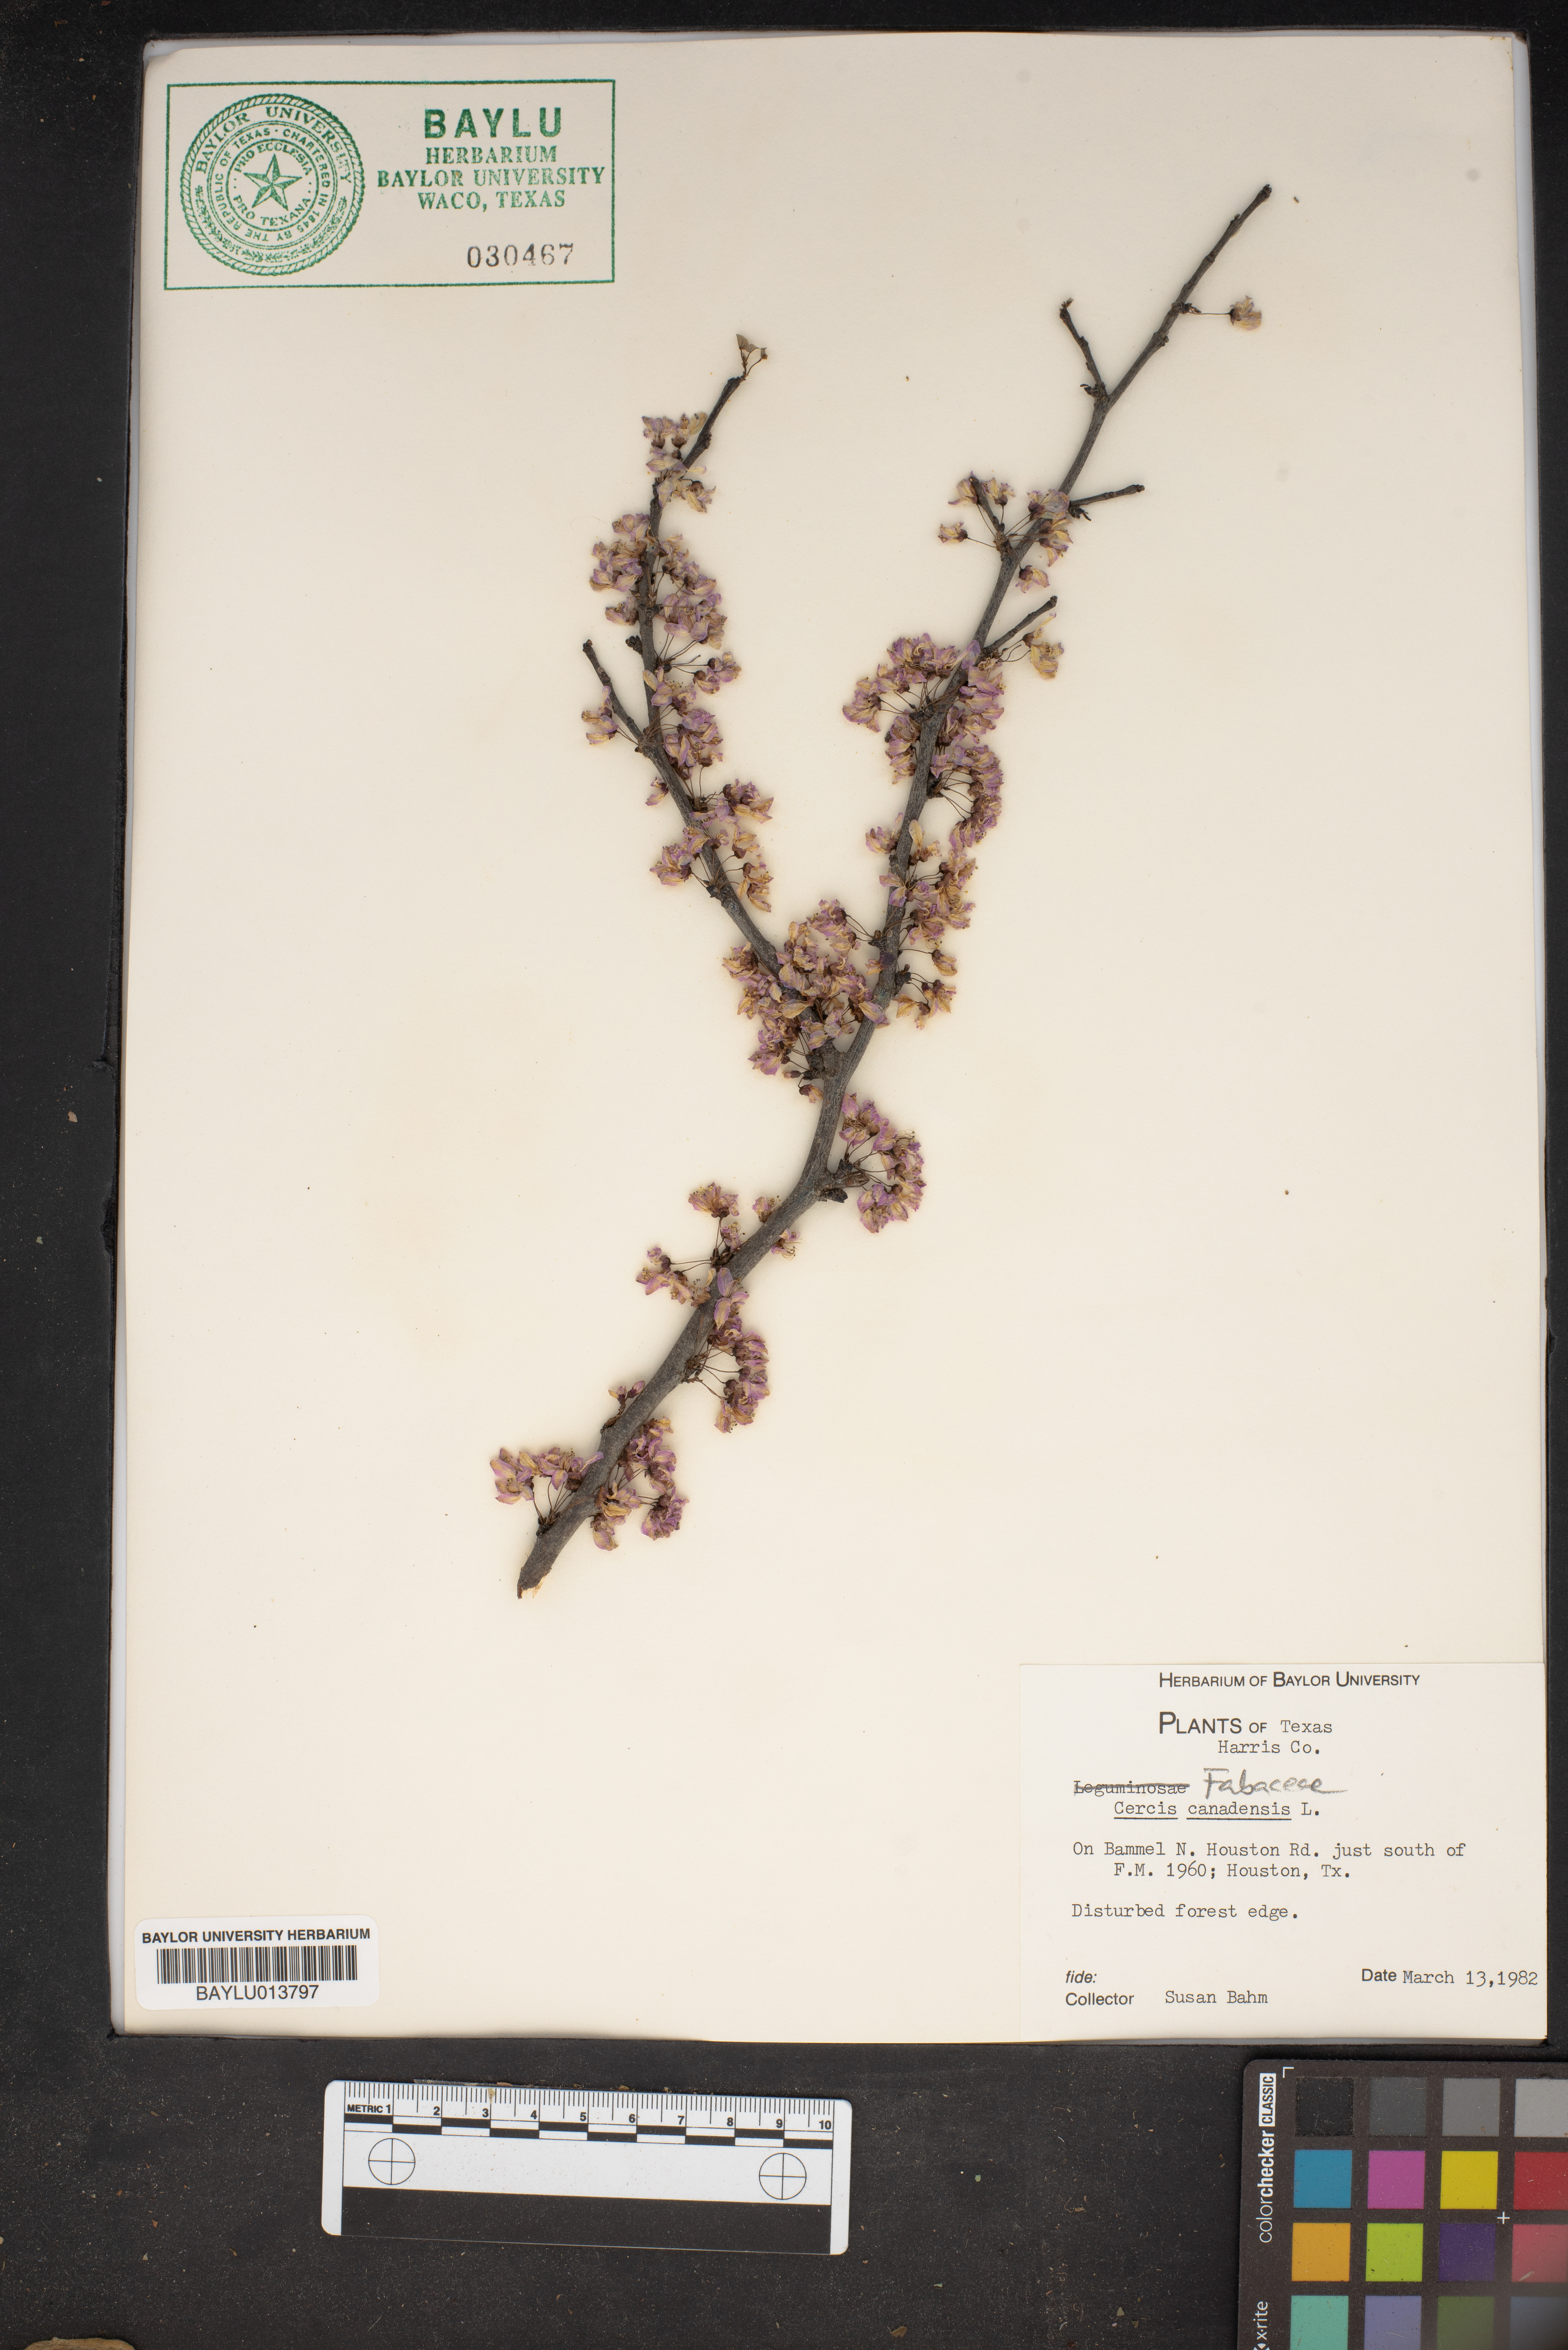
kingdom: Plantae
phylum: Tracheophyta
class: Magnoliopsida
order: Fabales
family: Fabaceae
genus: Cercis
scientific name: Cercis canadensis
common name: Eastern redbud
